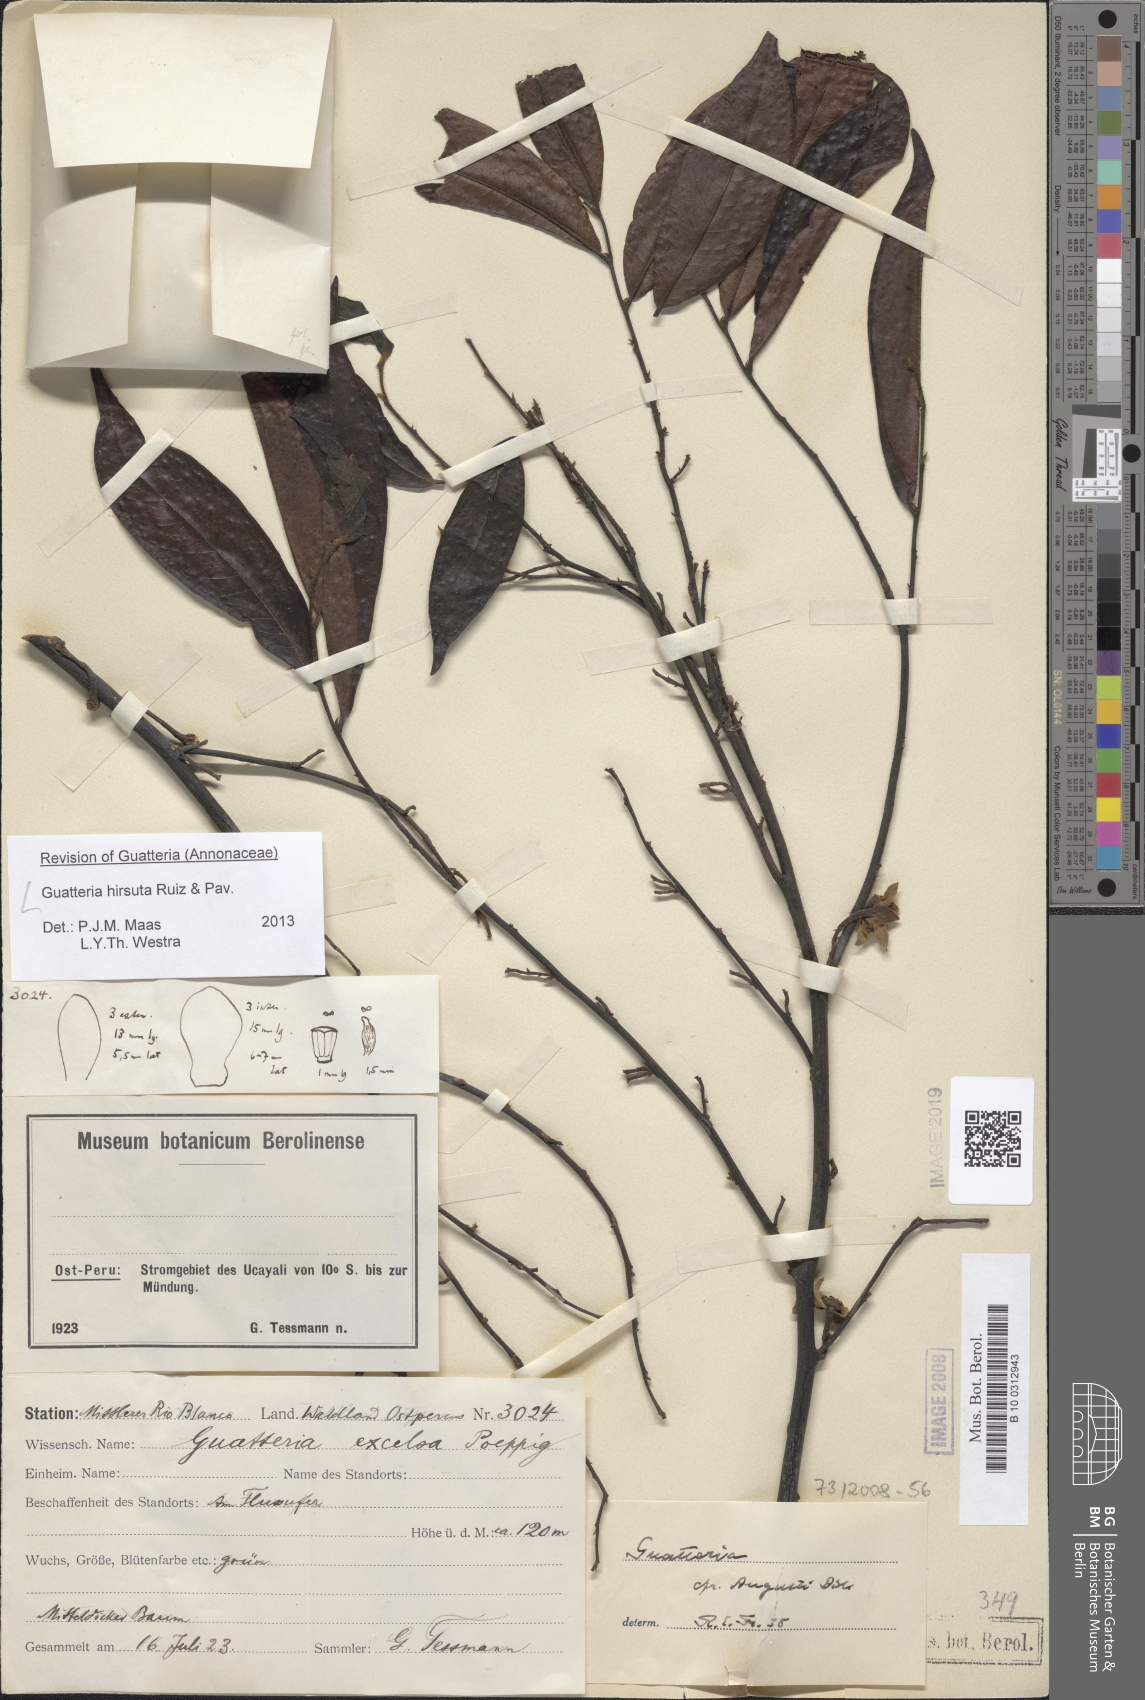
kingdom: Plantae
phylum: Tracheophyta
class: Magnoliopsida
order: Magnoliales
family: Annonaceae
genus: Guatteria
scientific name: Guatteria hirsuta
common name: Laurel
